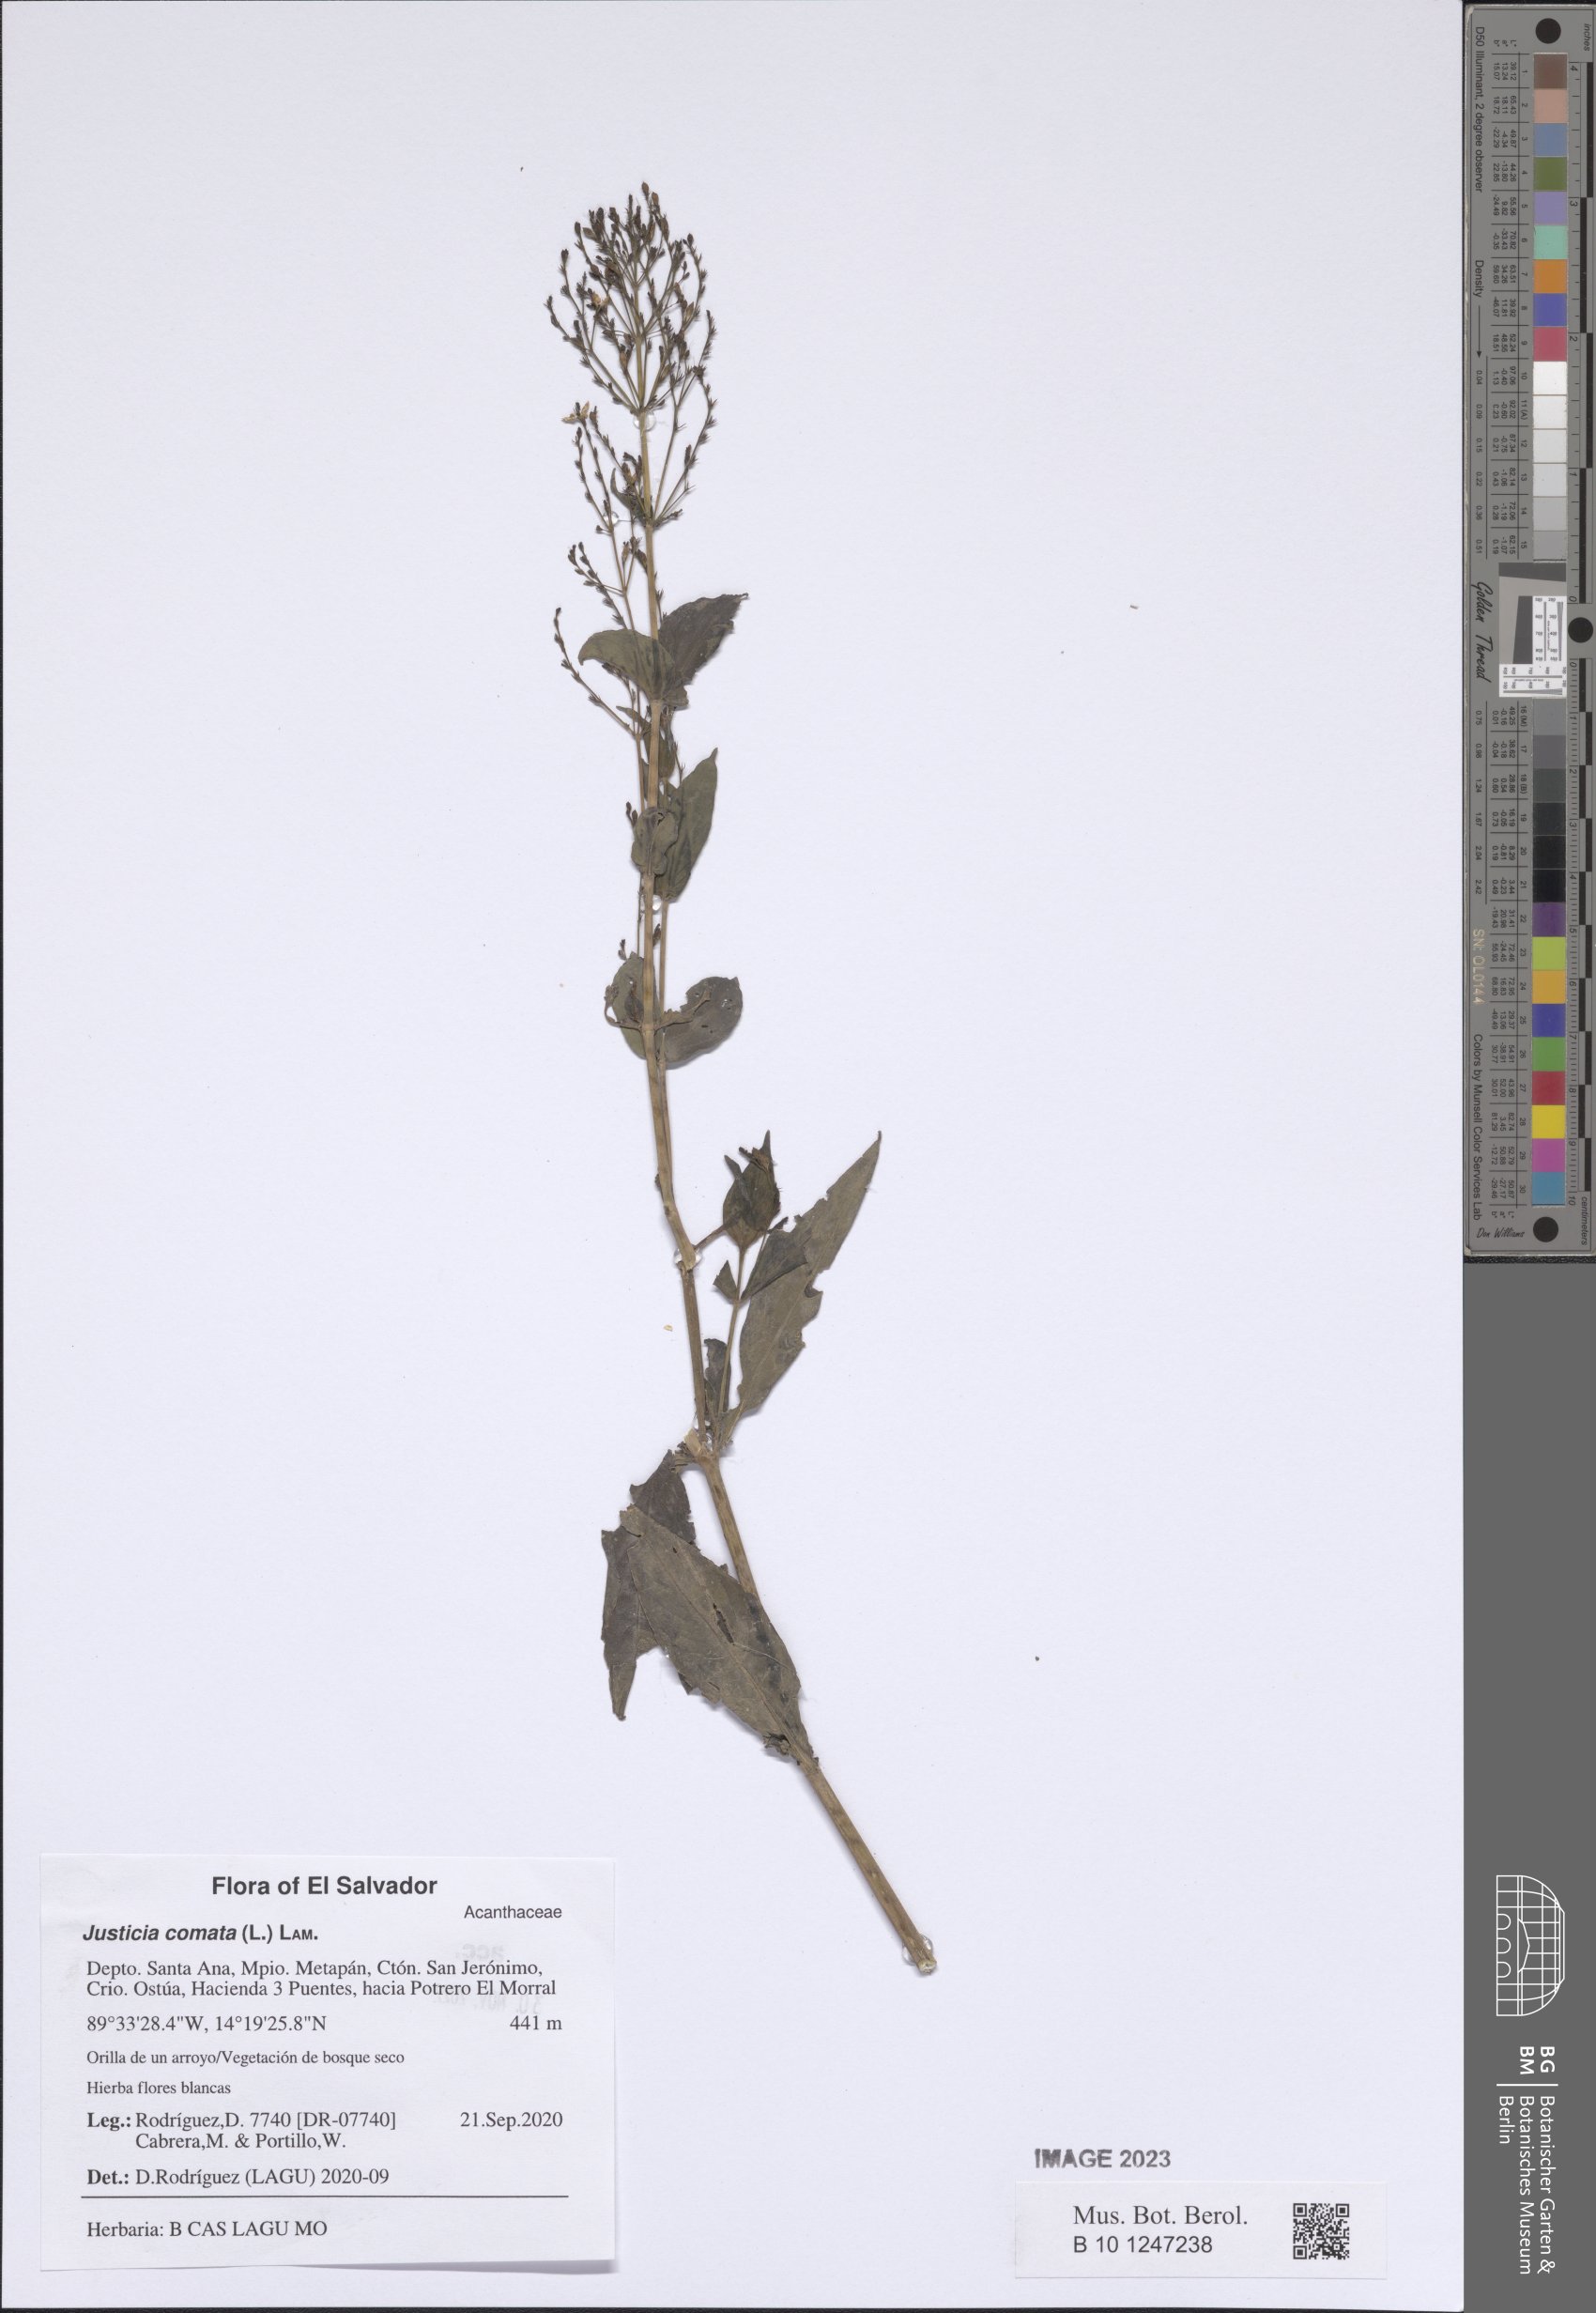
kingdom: Plantae
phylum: Tracheophyta
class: Magnoliopsida
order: Lamiales
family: Acanthaceae
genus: Dianthera
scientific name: Dianthera comata
